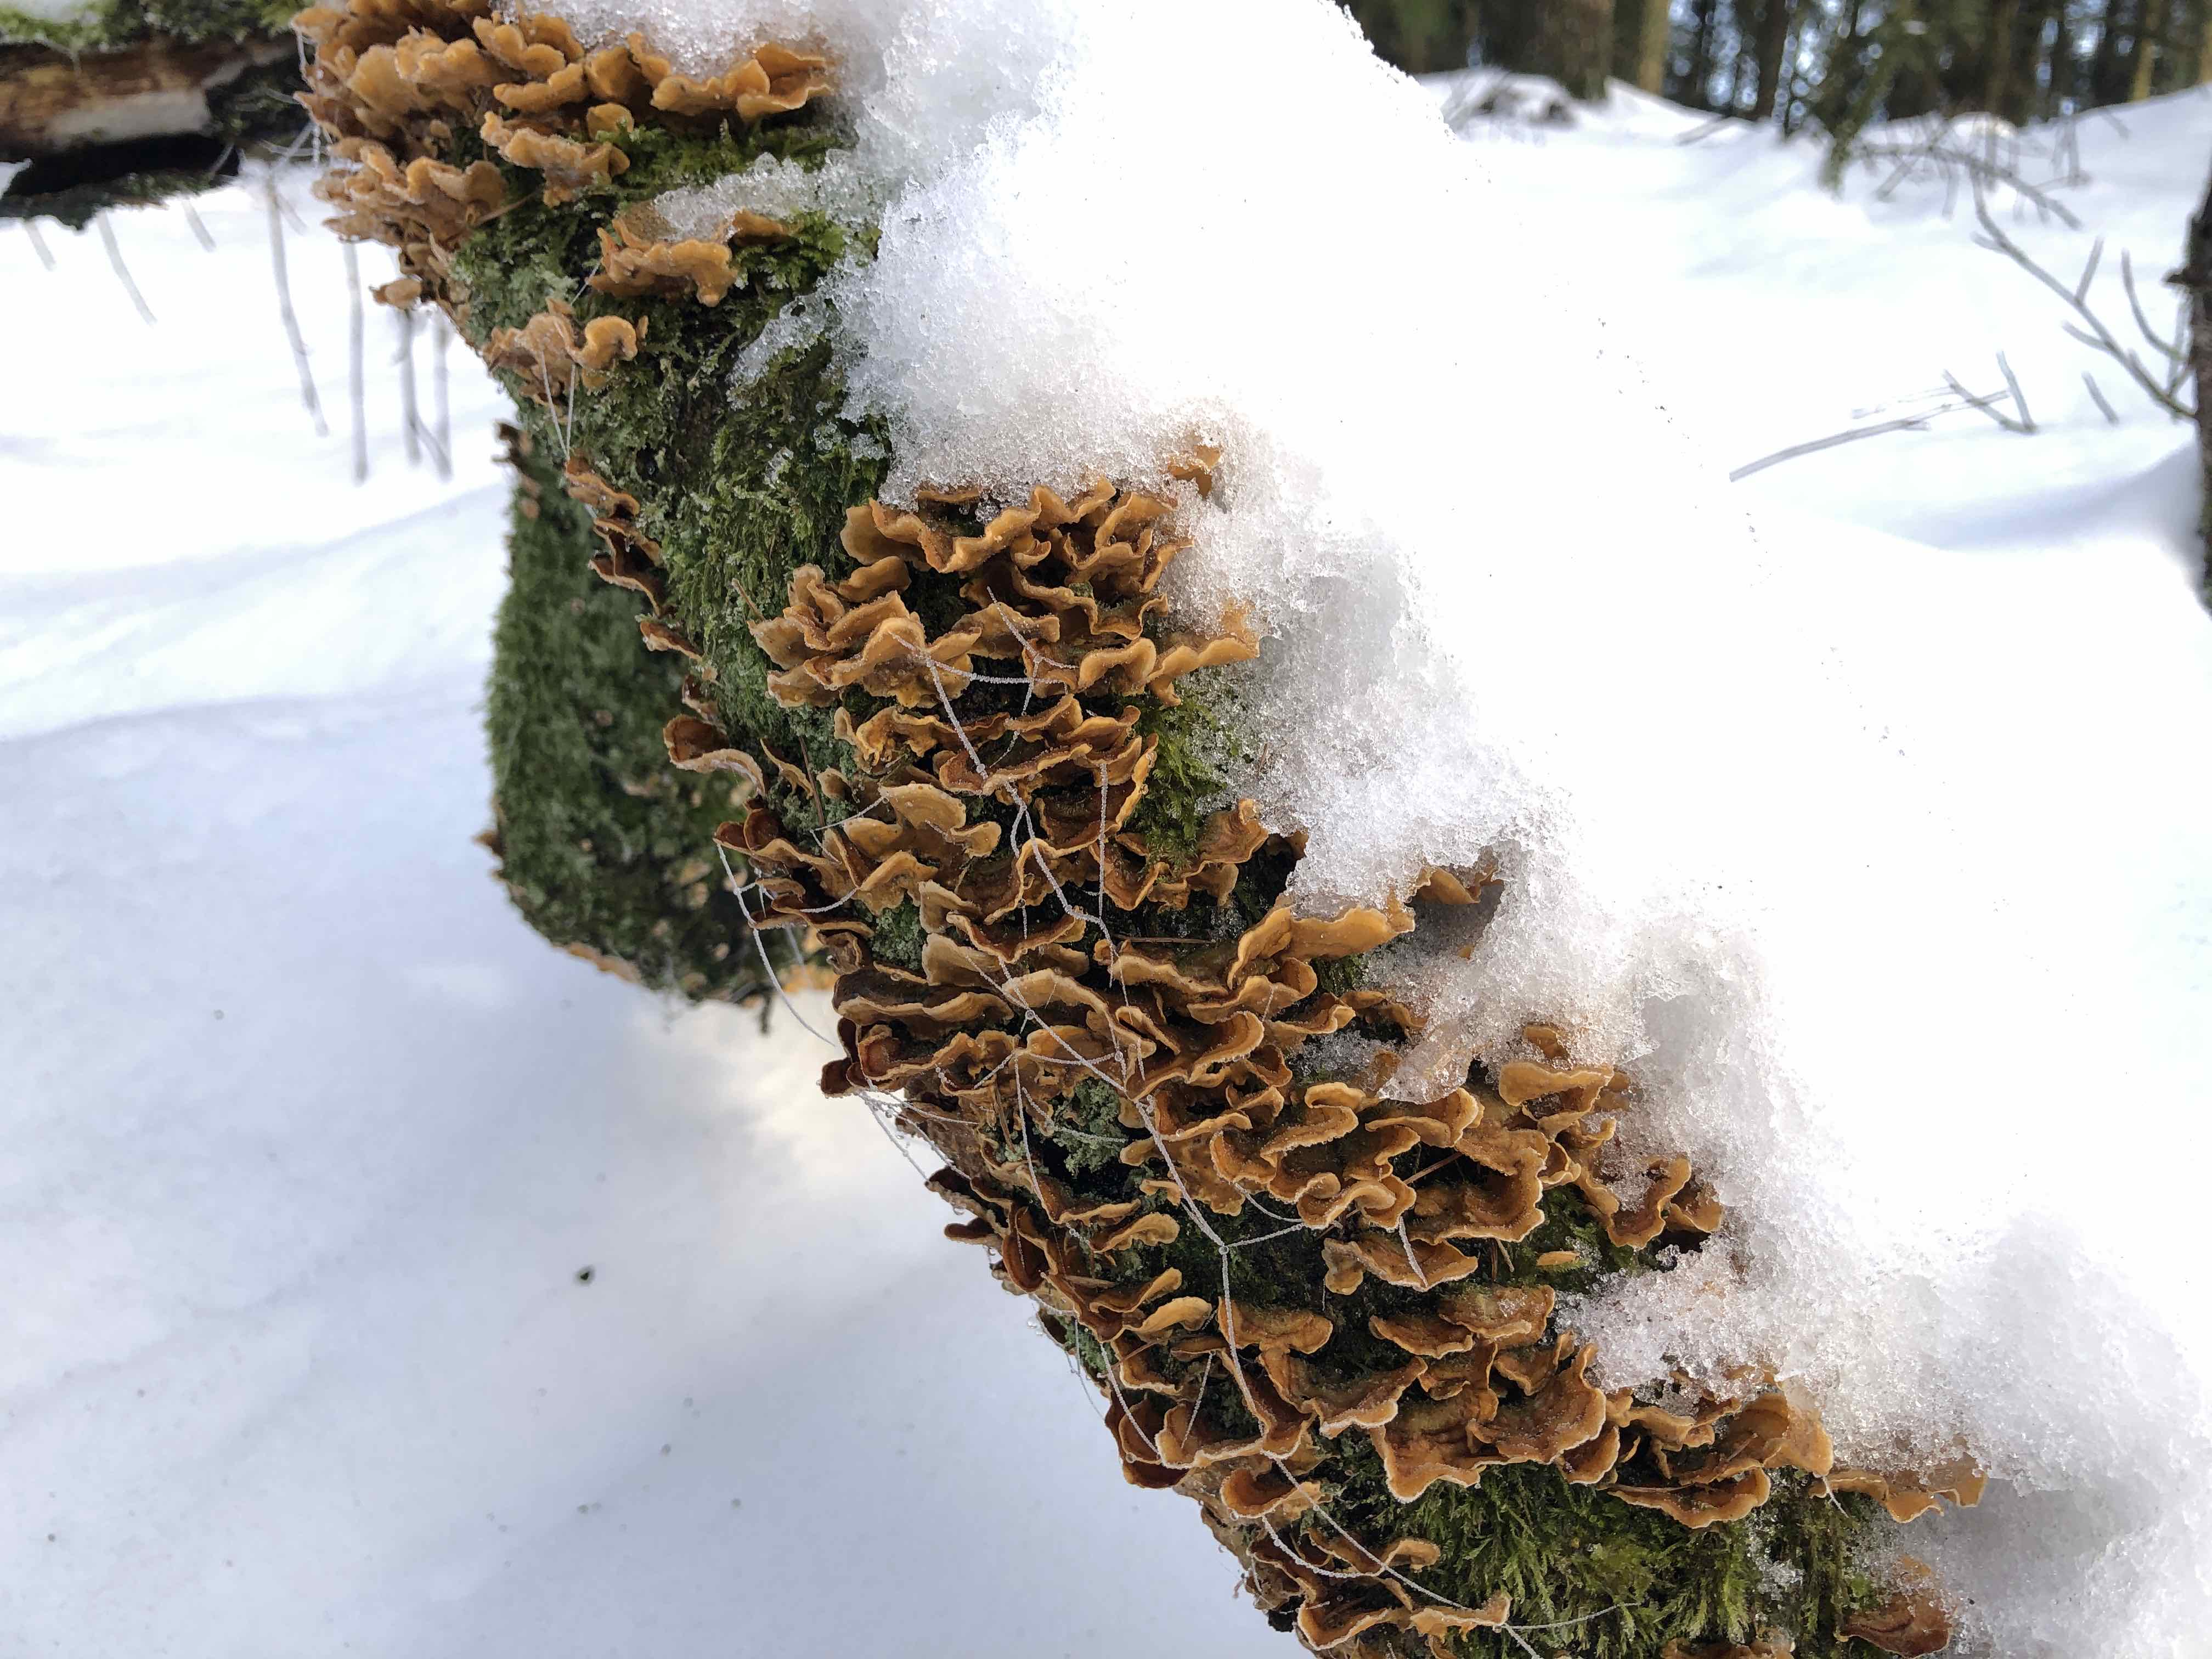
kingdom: Fungi
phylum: Basidiomycota
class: Agaricomycetes
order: Russulales
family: Stereaceae
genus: Stereum
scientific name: Stereum hirsutum
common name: håret lædersvamp
